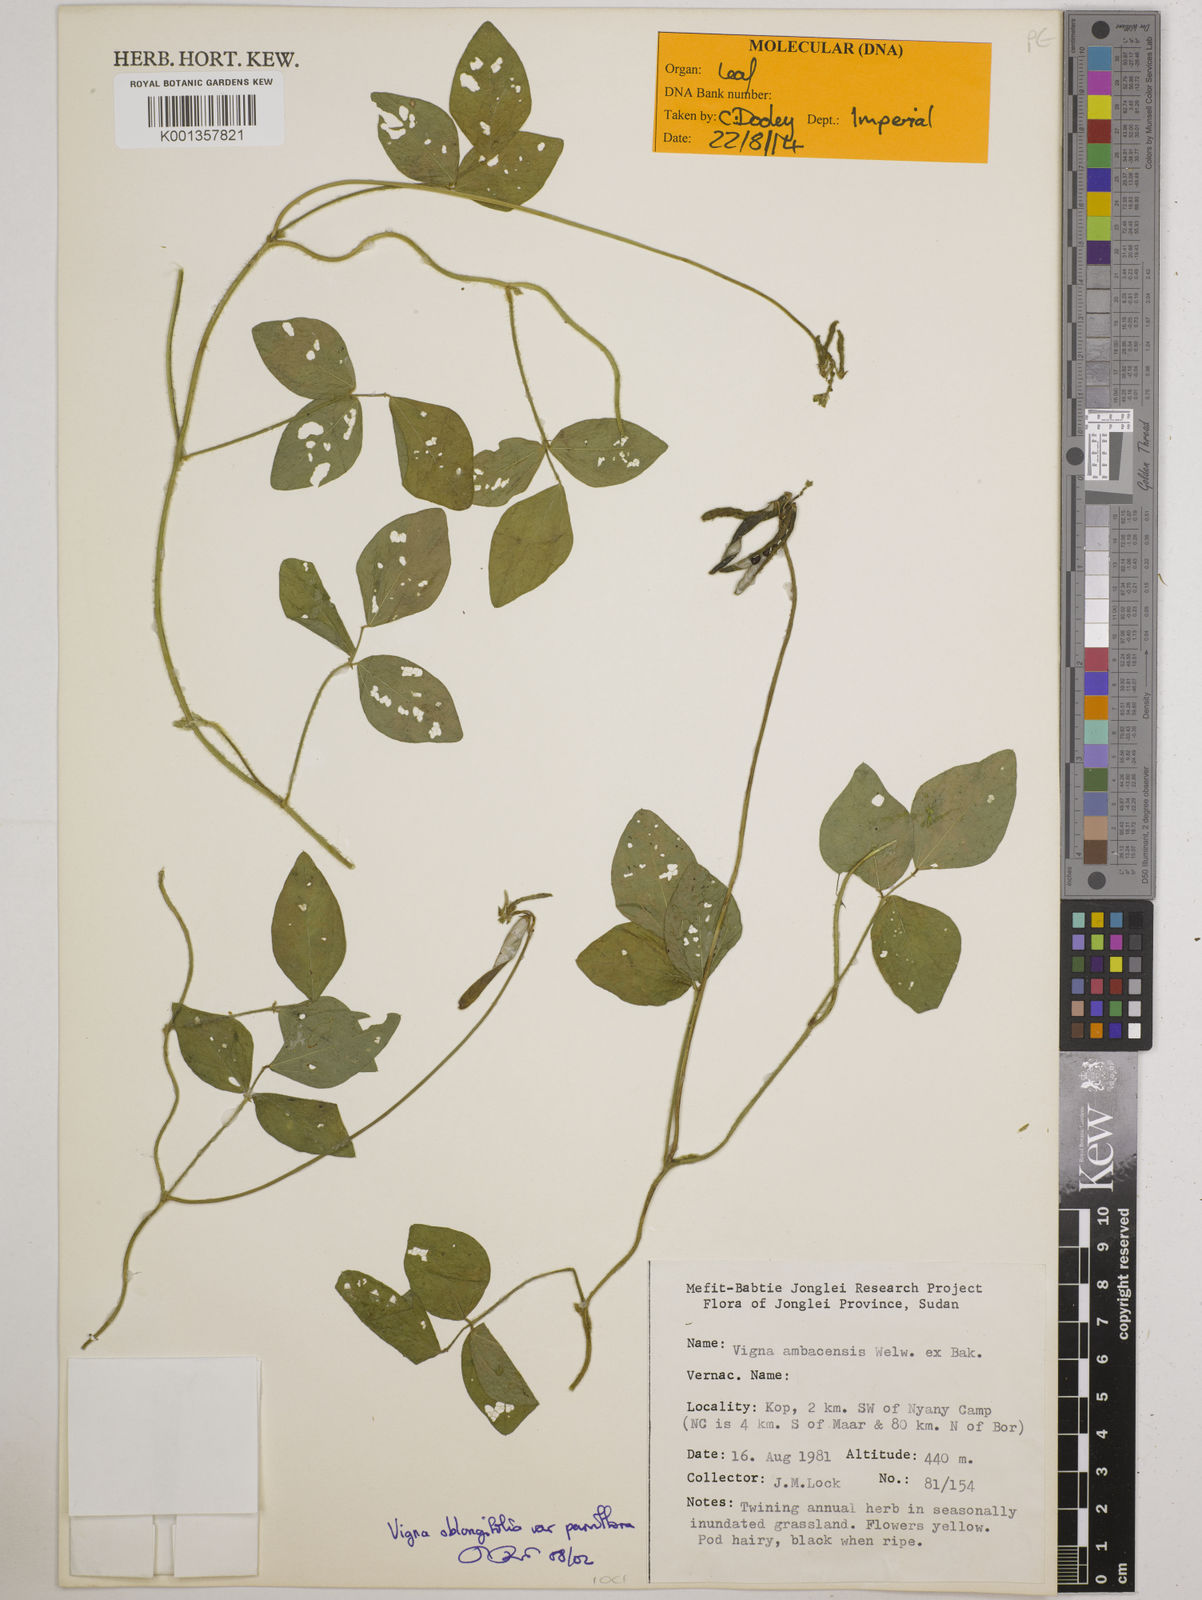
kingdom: Plantae
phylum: Tracheophyta
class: Magnoliopsida
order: Fabales
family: Fabaceae
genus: Vigna
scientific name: Vigna
